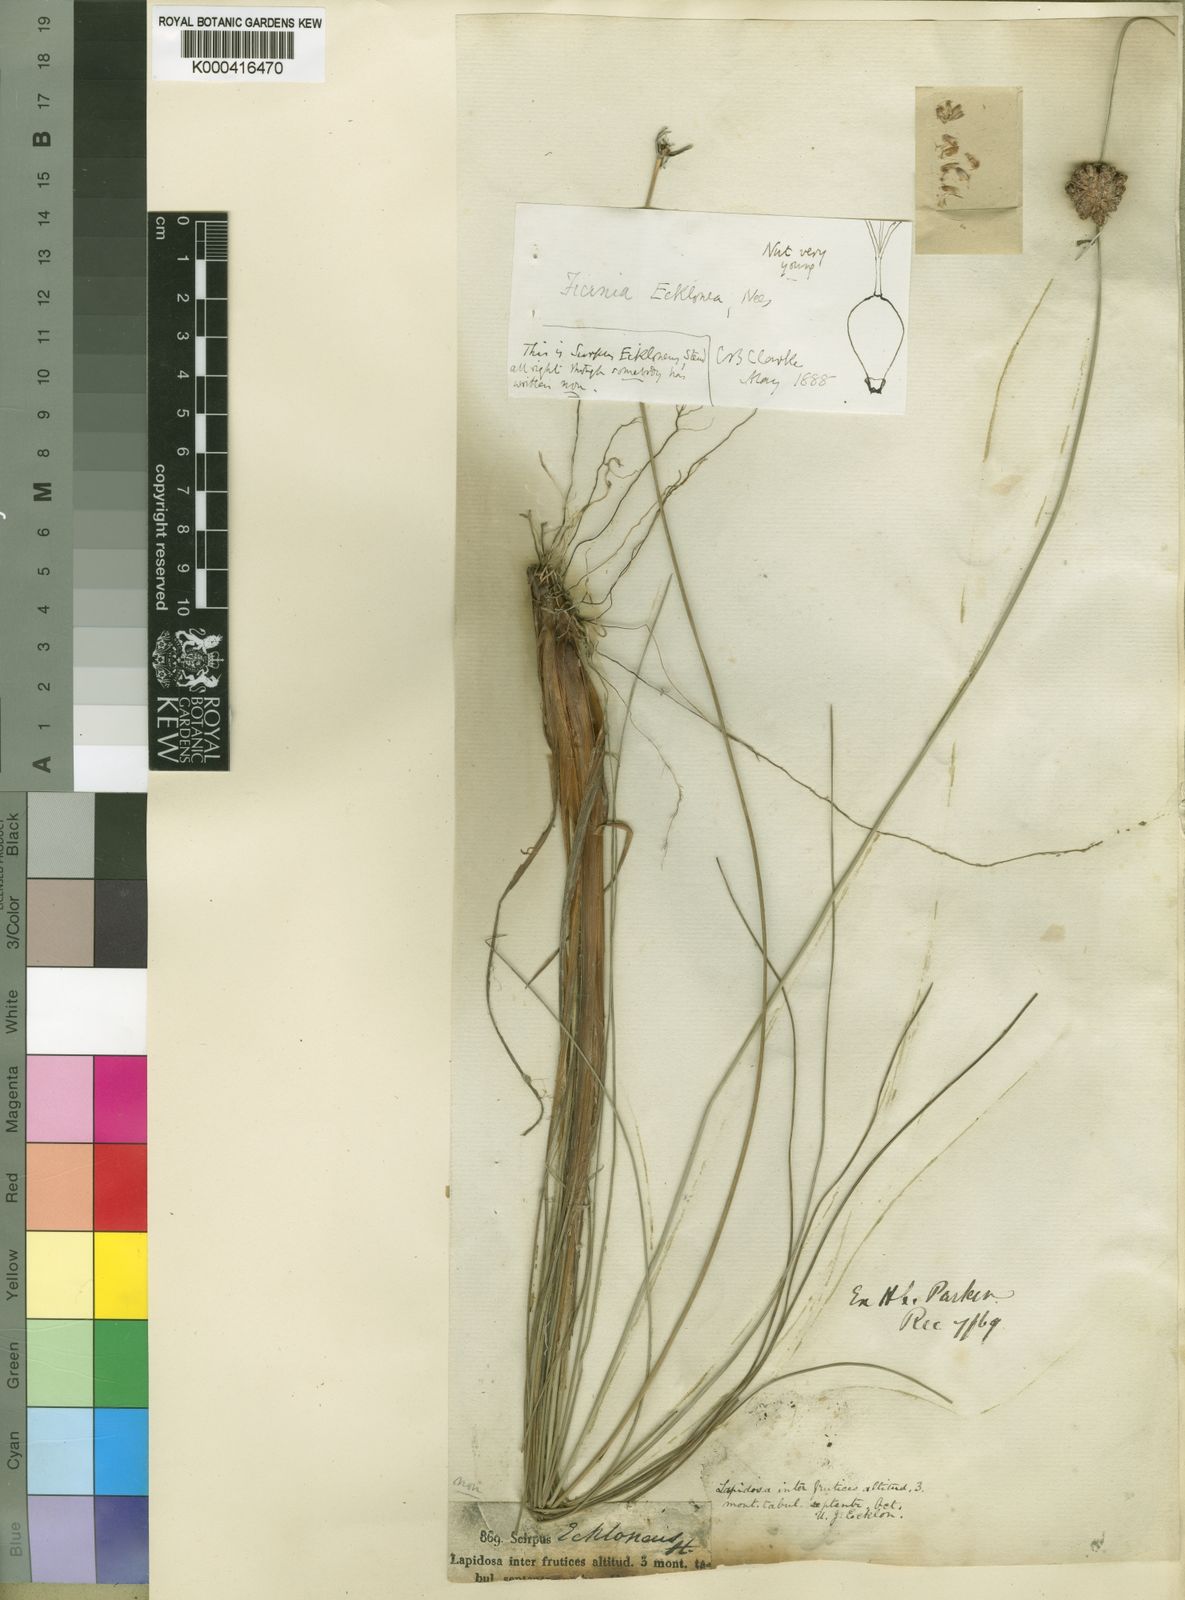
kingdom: Plantae
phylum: Tracheophyta
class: Liliopsida
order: Poales
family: Cyperaceae
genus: Ficinia
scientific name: Ficinia ecklonea
